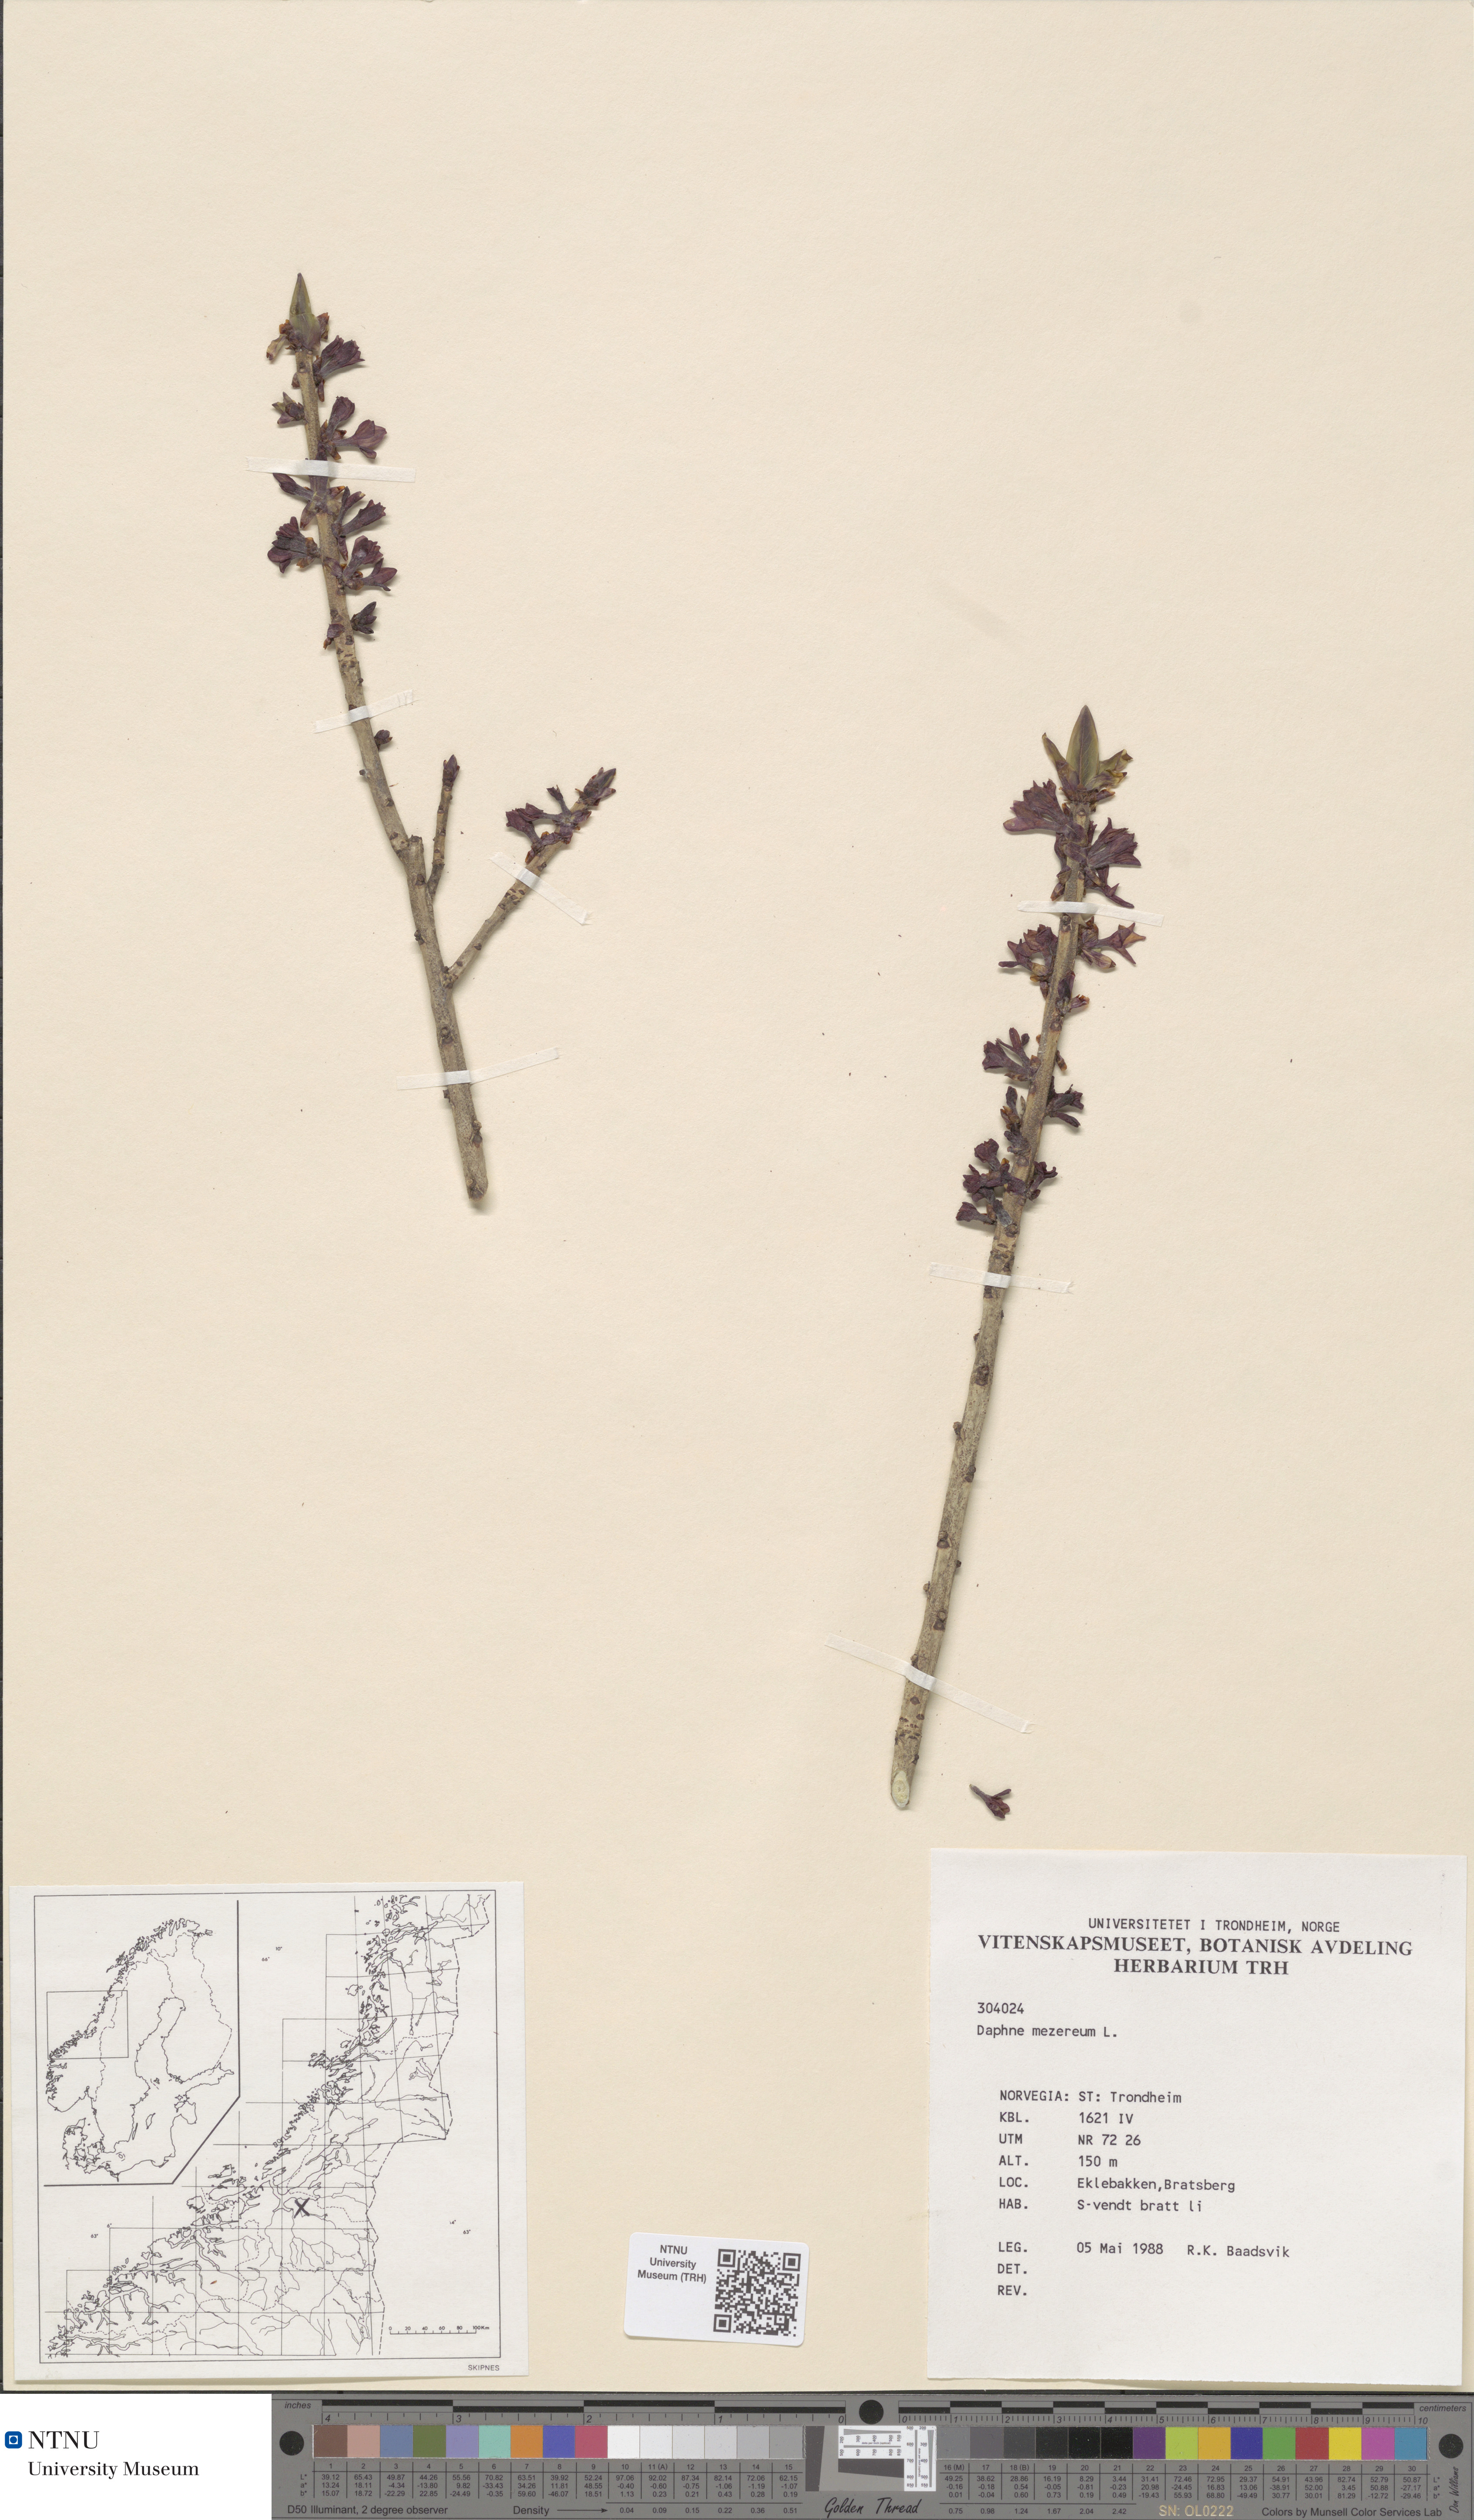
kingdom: Plantae
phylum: Tracheophyta
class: Magnoliopsida
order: Malvales
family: Thymelaeaceae
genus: Daphne
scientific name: Daphne mezereum
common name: Mezereon
